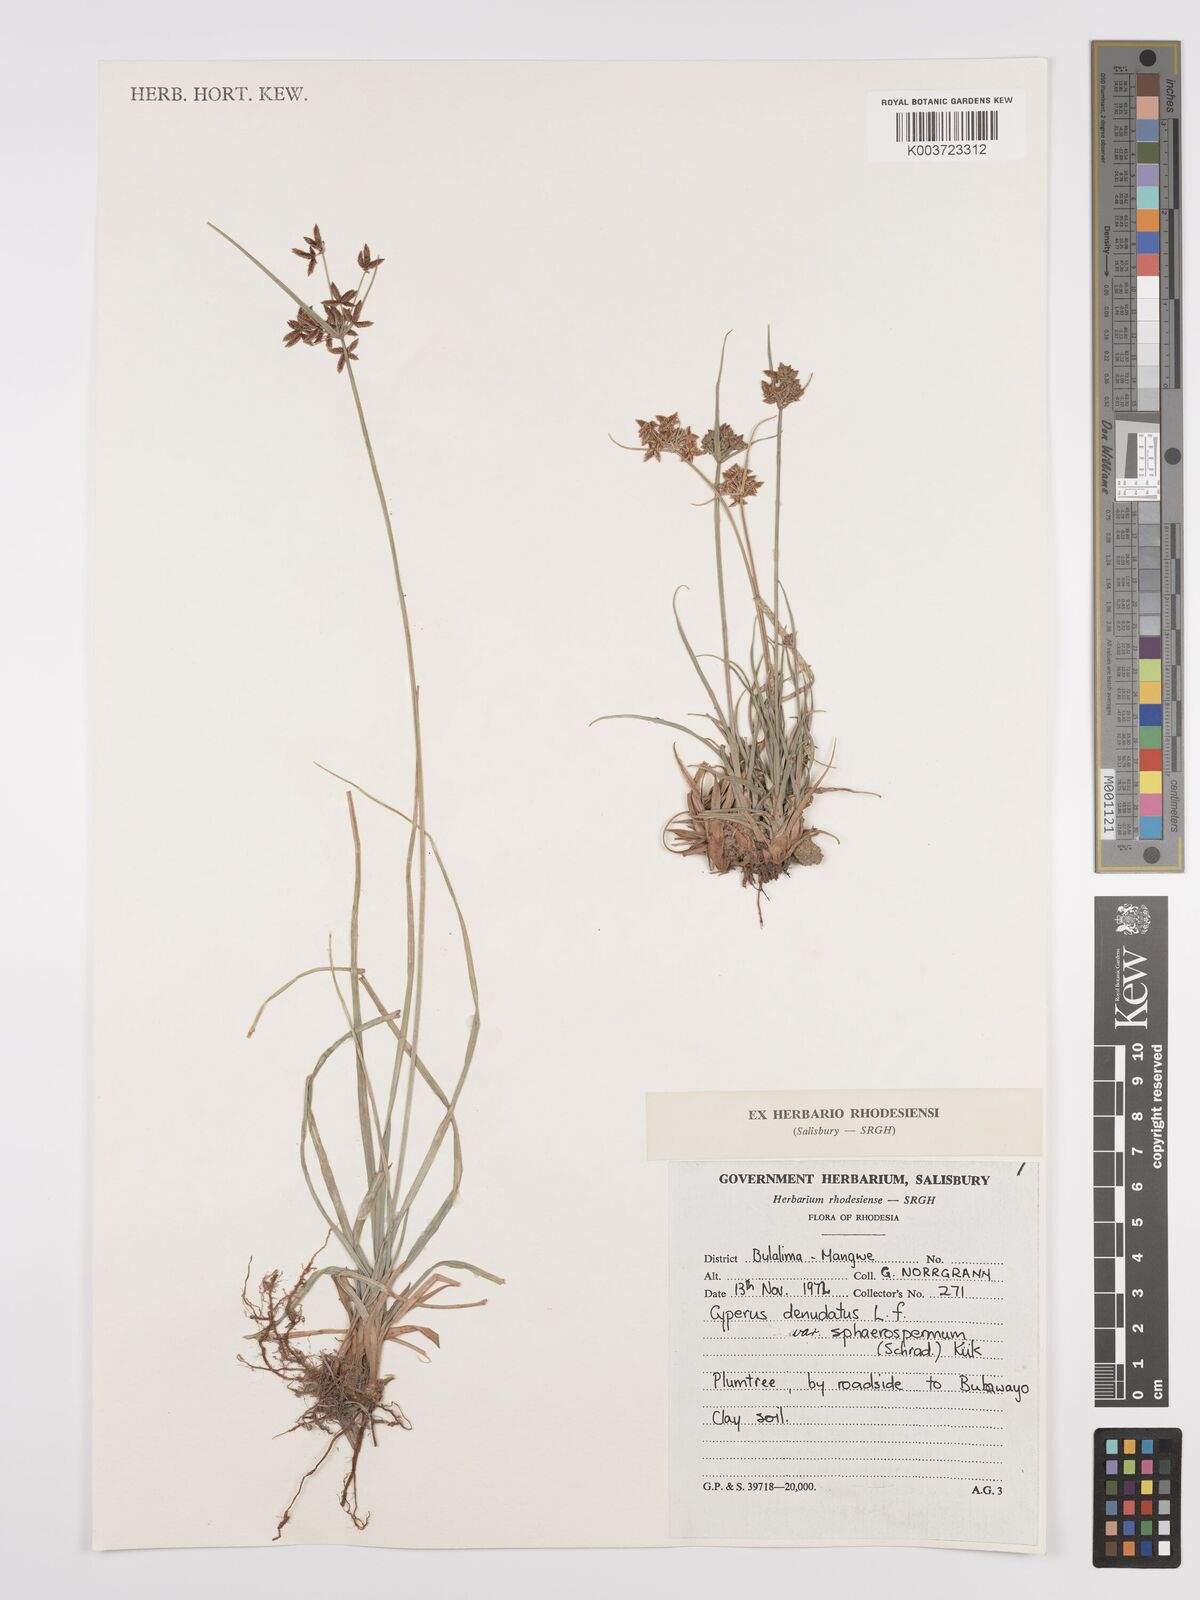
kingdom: Plantae
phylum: Tracheophyta
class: Liliopsida
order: Poales
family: Cyperaceae
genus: Cyperus
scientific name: Cyperus denudatus
